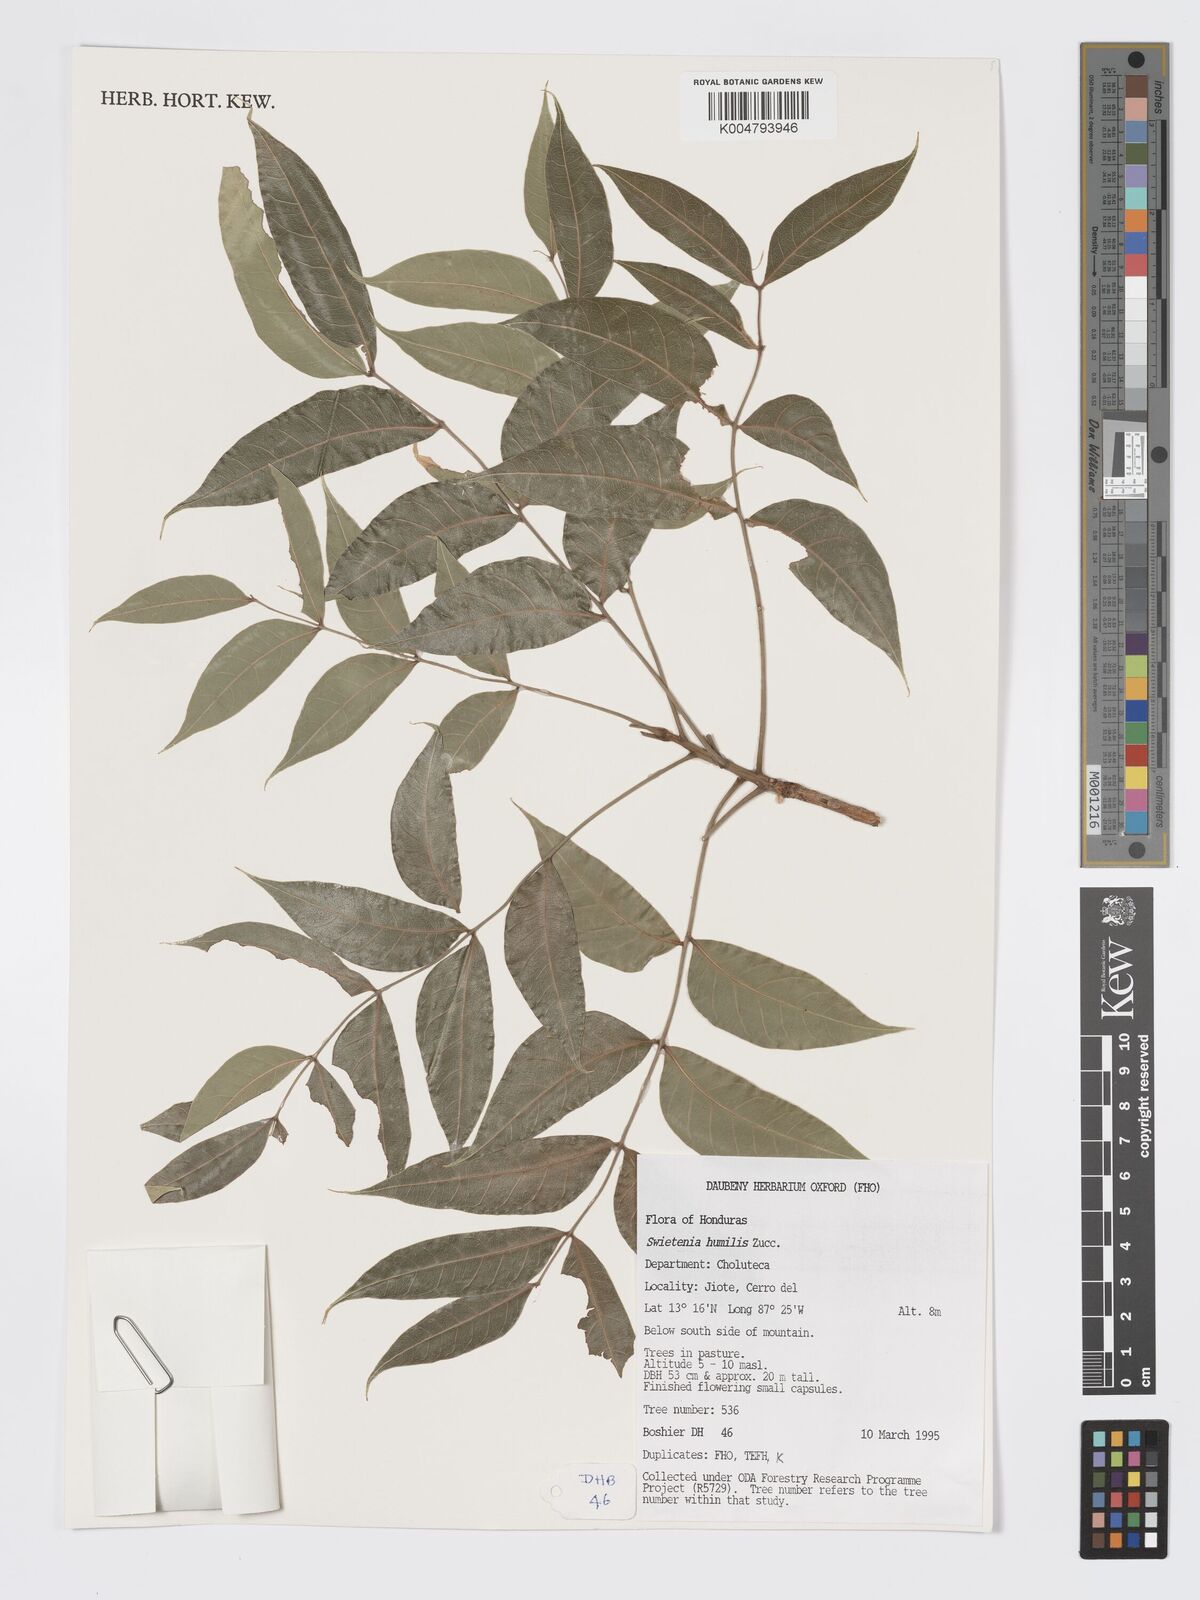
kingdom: Plantae
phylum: Tracheophyta
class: Magnoliopsida
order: Sapindales
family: Meliaceae
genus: Swietenia
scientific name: Swietenia humilis
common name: Pacific coast mahogany
